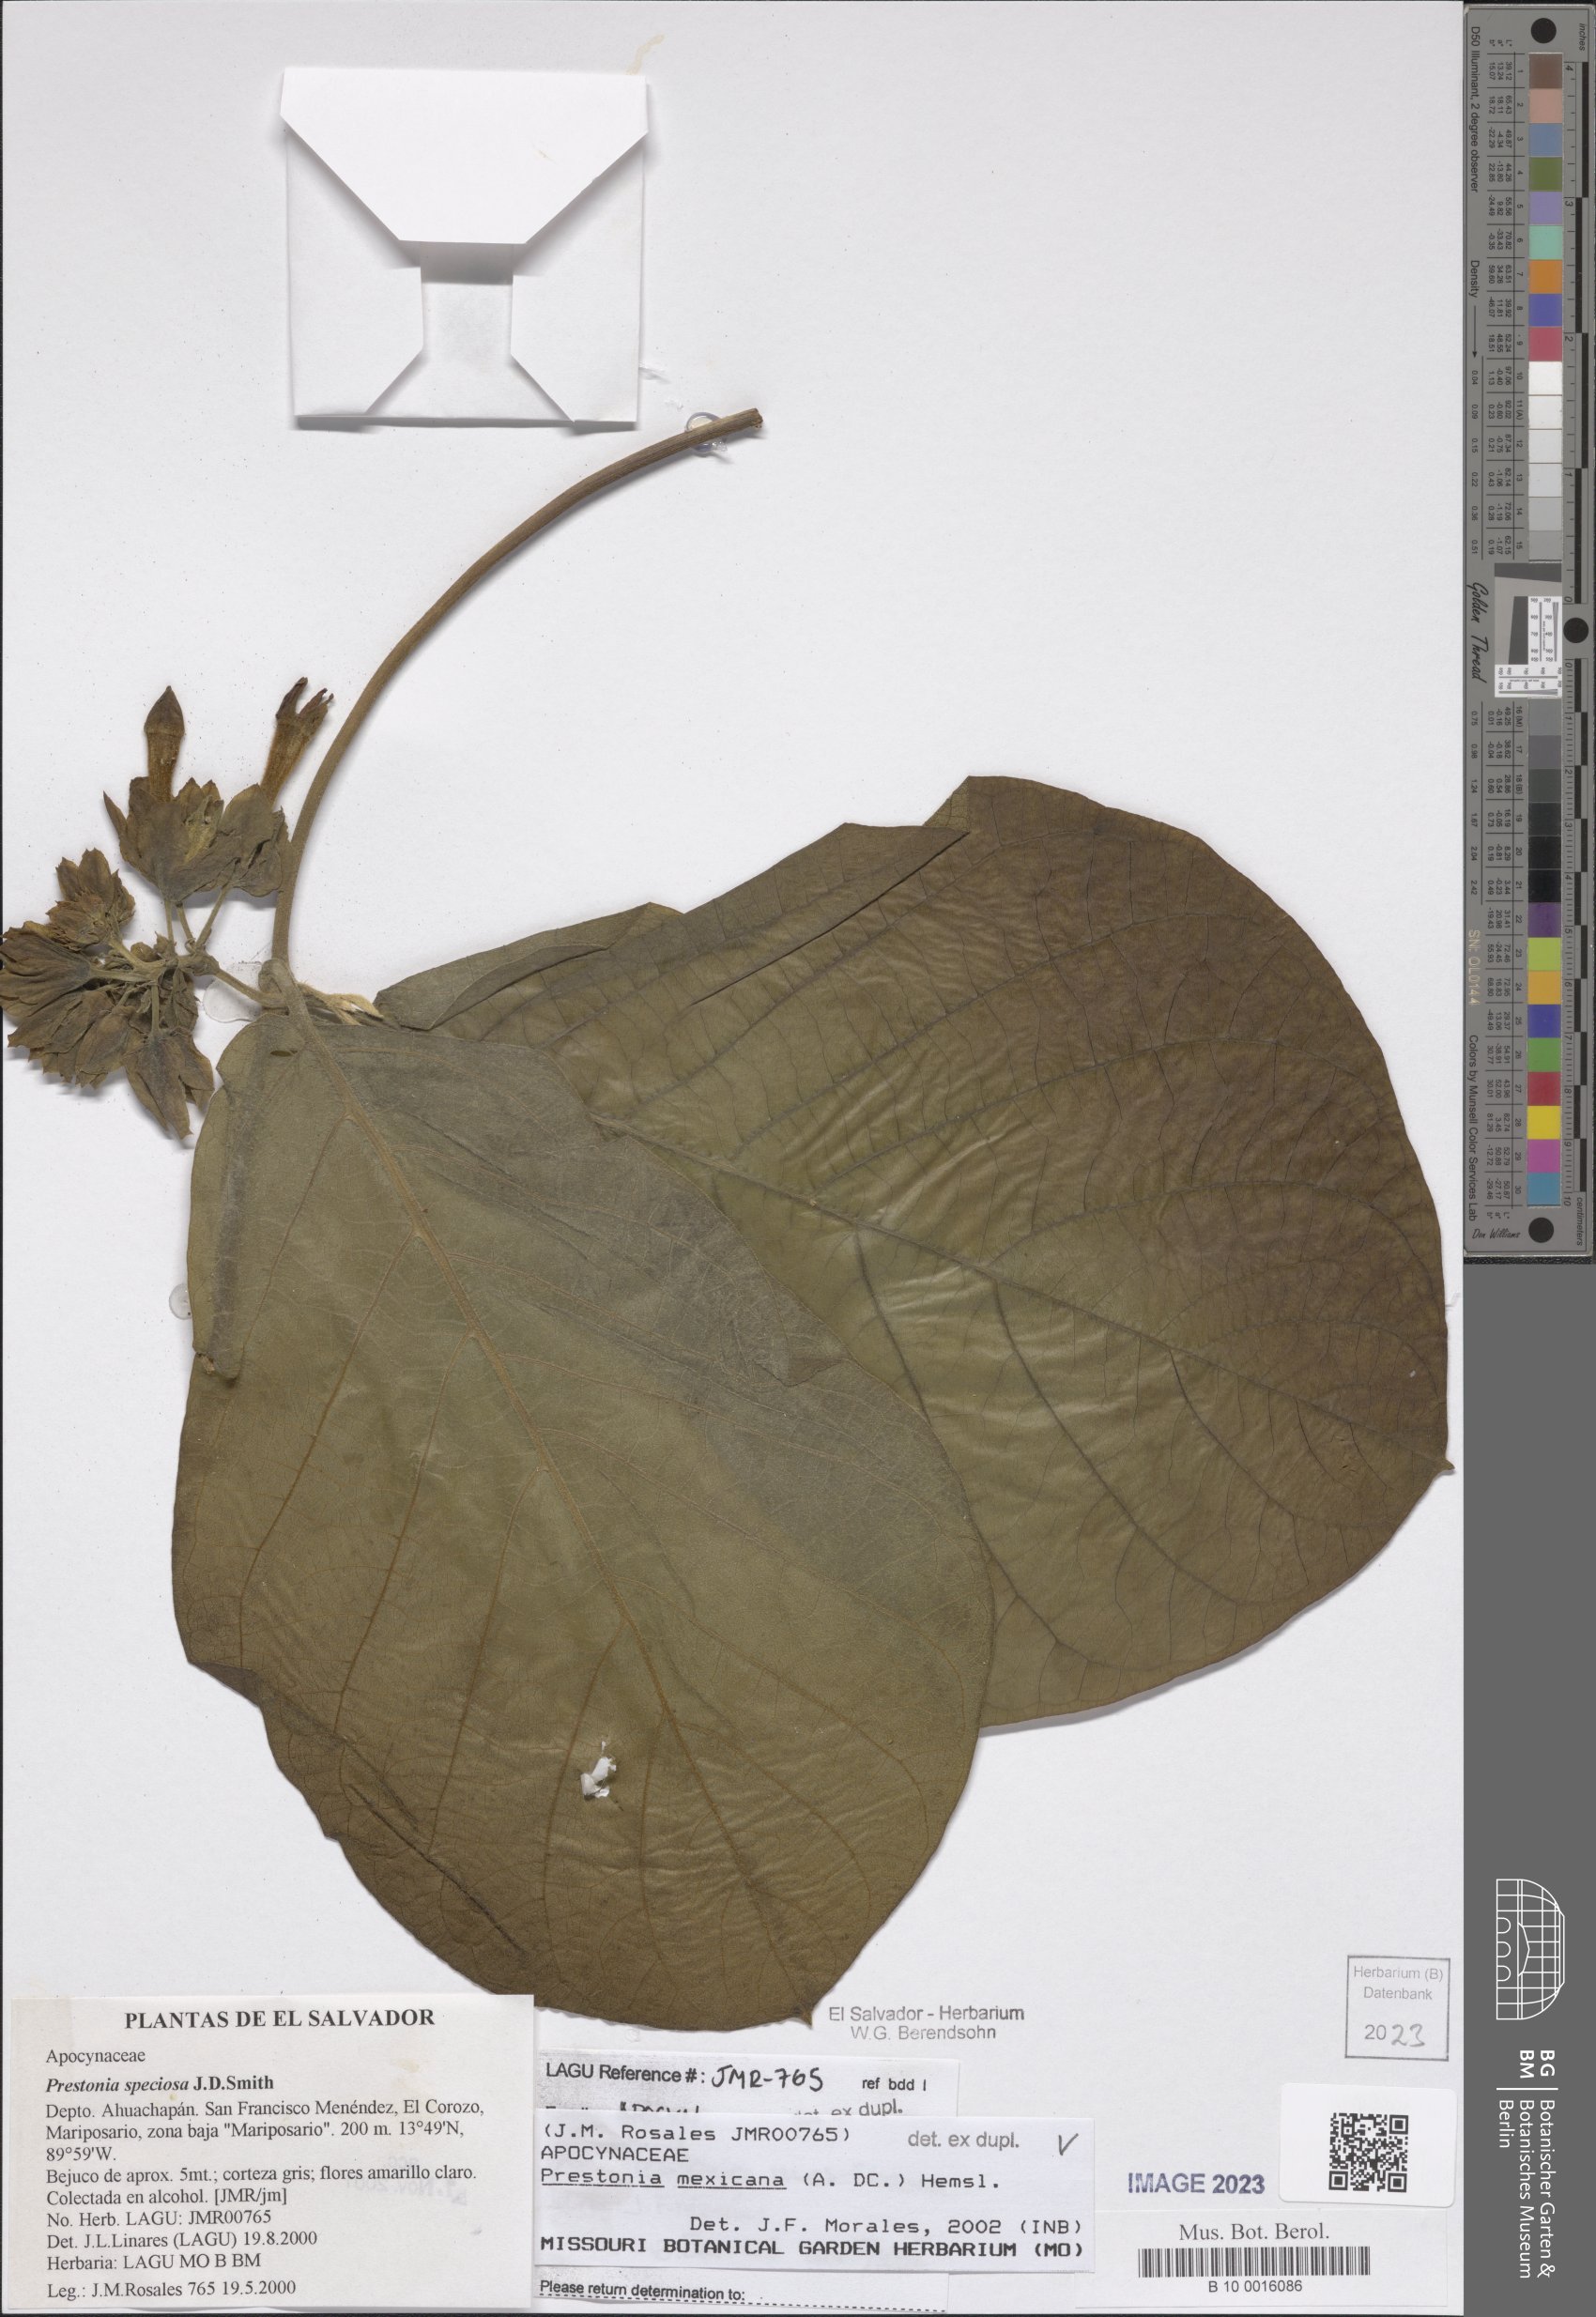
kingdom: Plantae
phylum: Tracheophyta
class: Magnoliopsida
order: Gentianales
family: Apocynaceae
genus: Prestonia
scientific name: Prestonia mexicana
